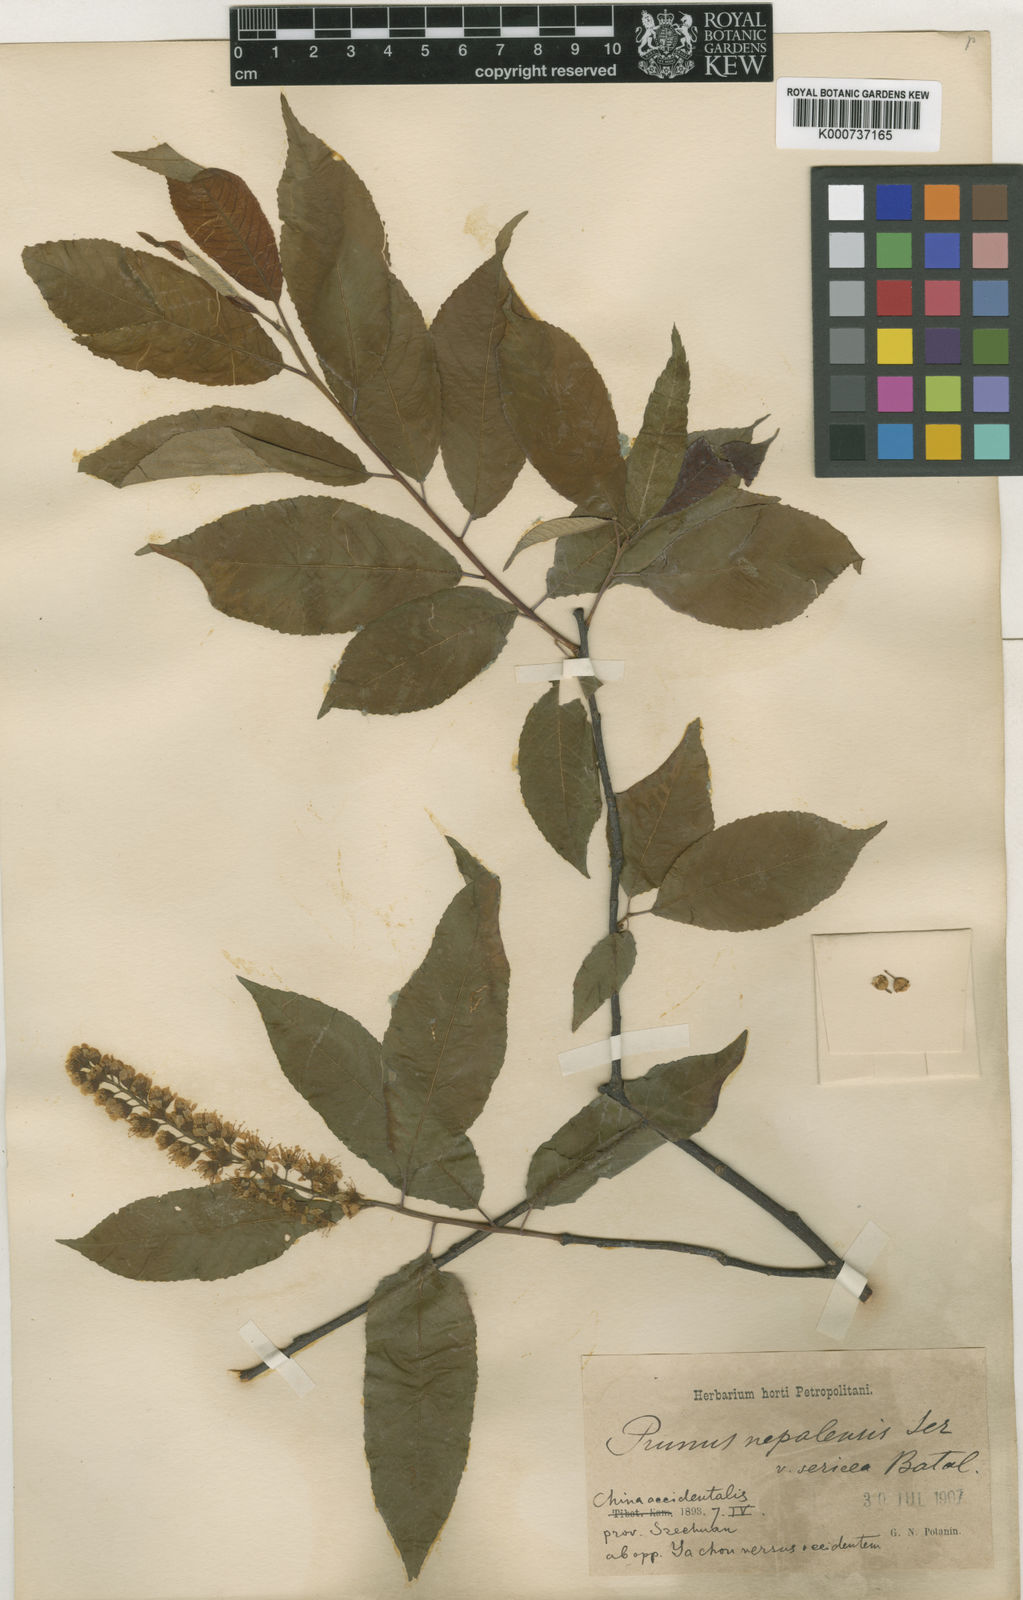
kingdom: Plantae
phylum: Tracheophyta
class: Magnoliopsida
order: Rosales
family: Rosaceae
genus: Prunus
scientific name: Prunus wilsonii
